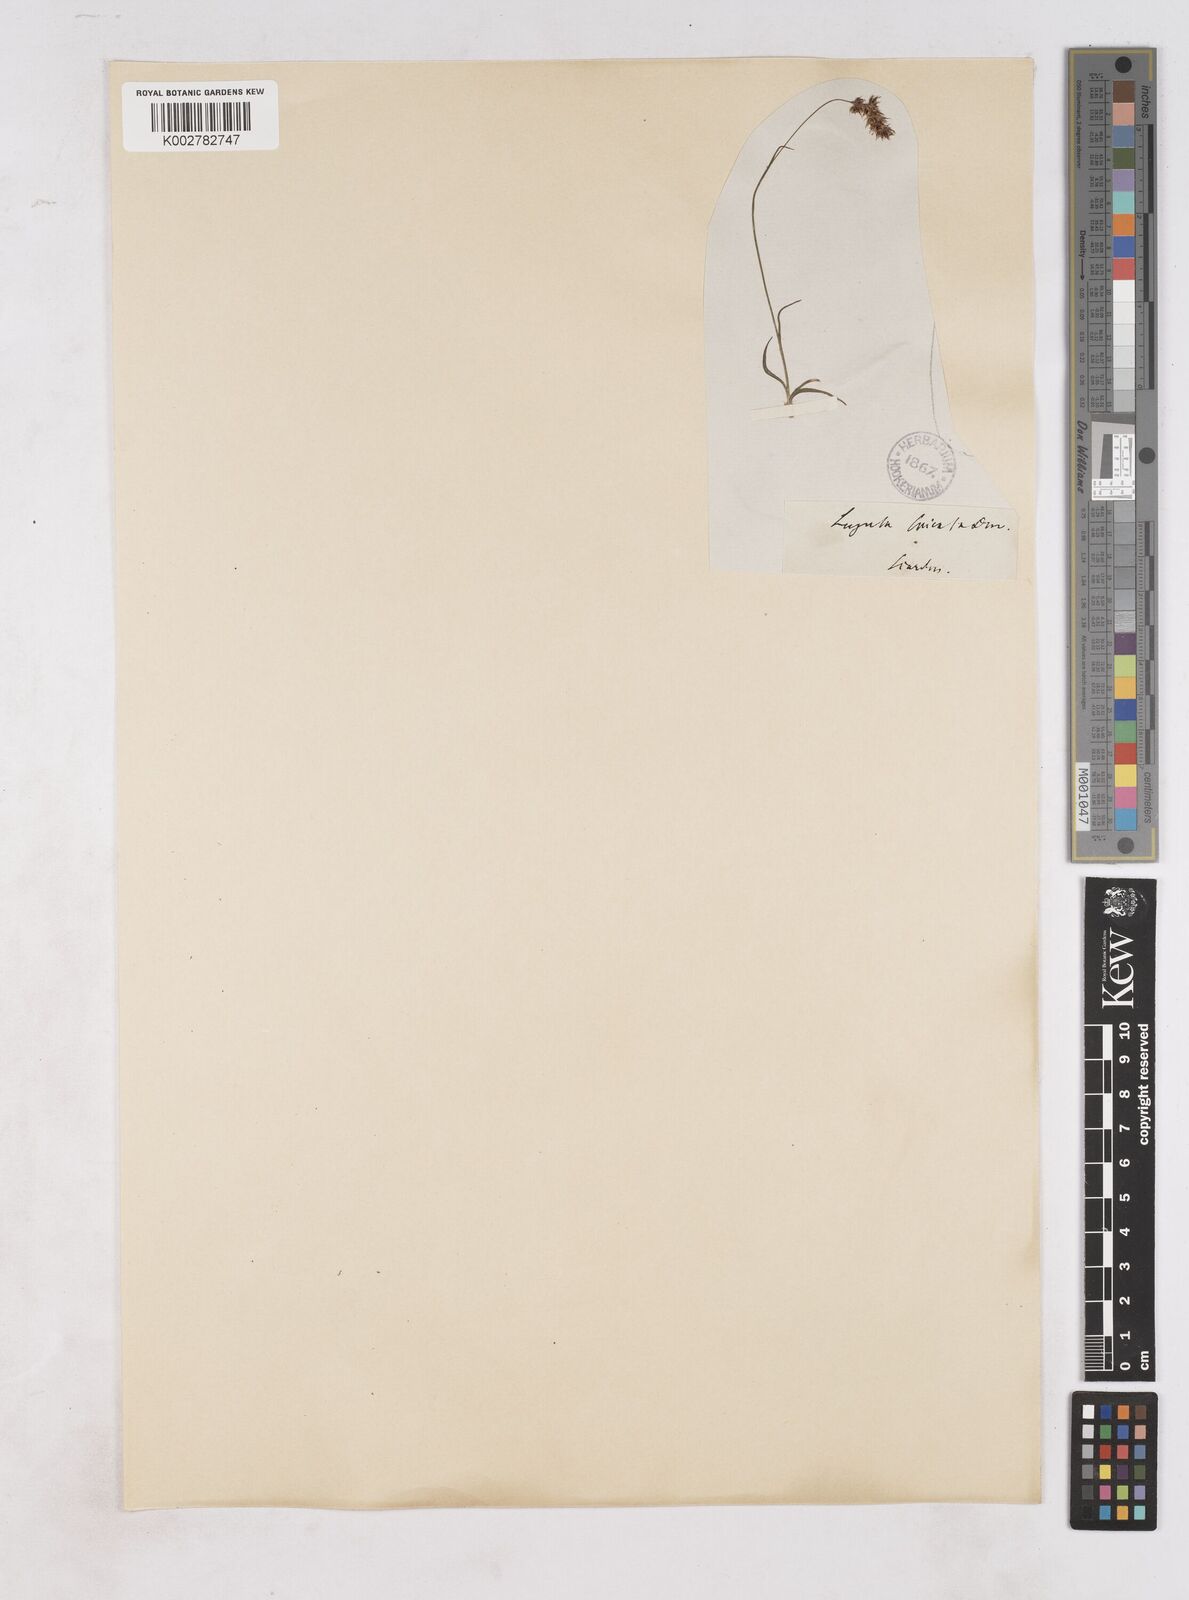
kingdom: Plantae
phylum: Tracheophyta
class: Liliopsida
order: Poales
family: Juncaceae
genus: Luzula
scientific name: Luzula spicata
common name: Spiked wood-rush
